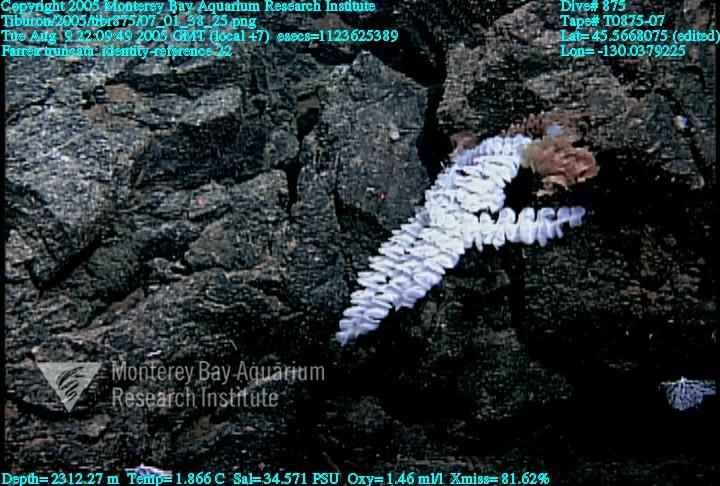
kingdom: Animalia
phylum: Porifera
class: Hexactinellida
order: Sceptrulophora
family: Farreidae
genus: Farrea
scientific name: Farrea truncata
